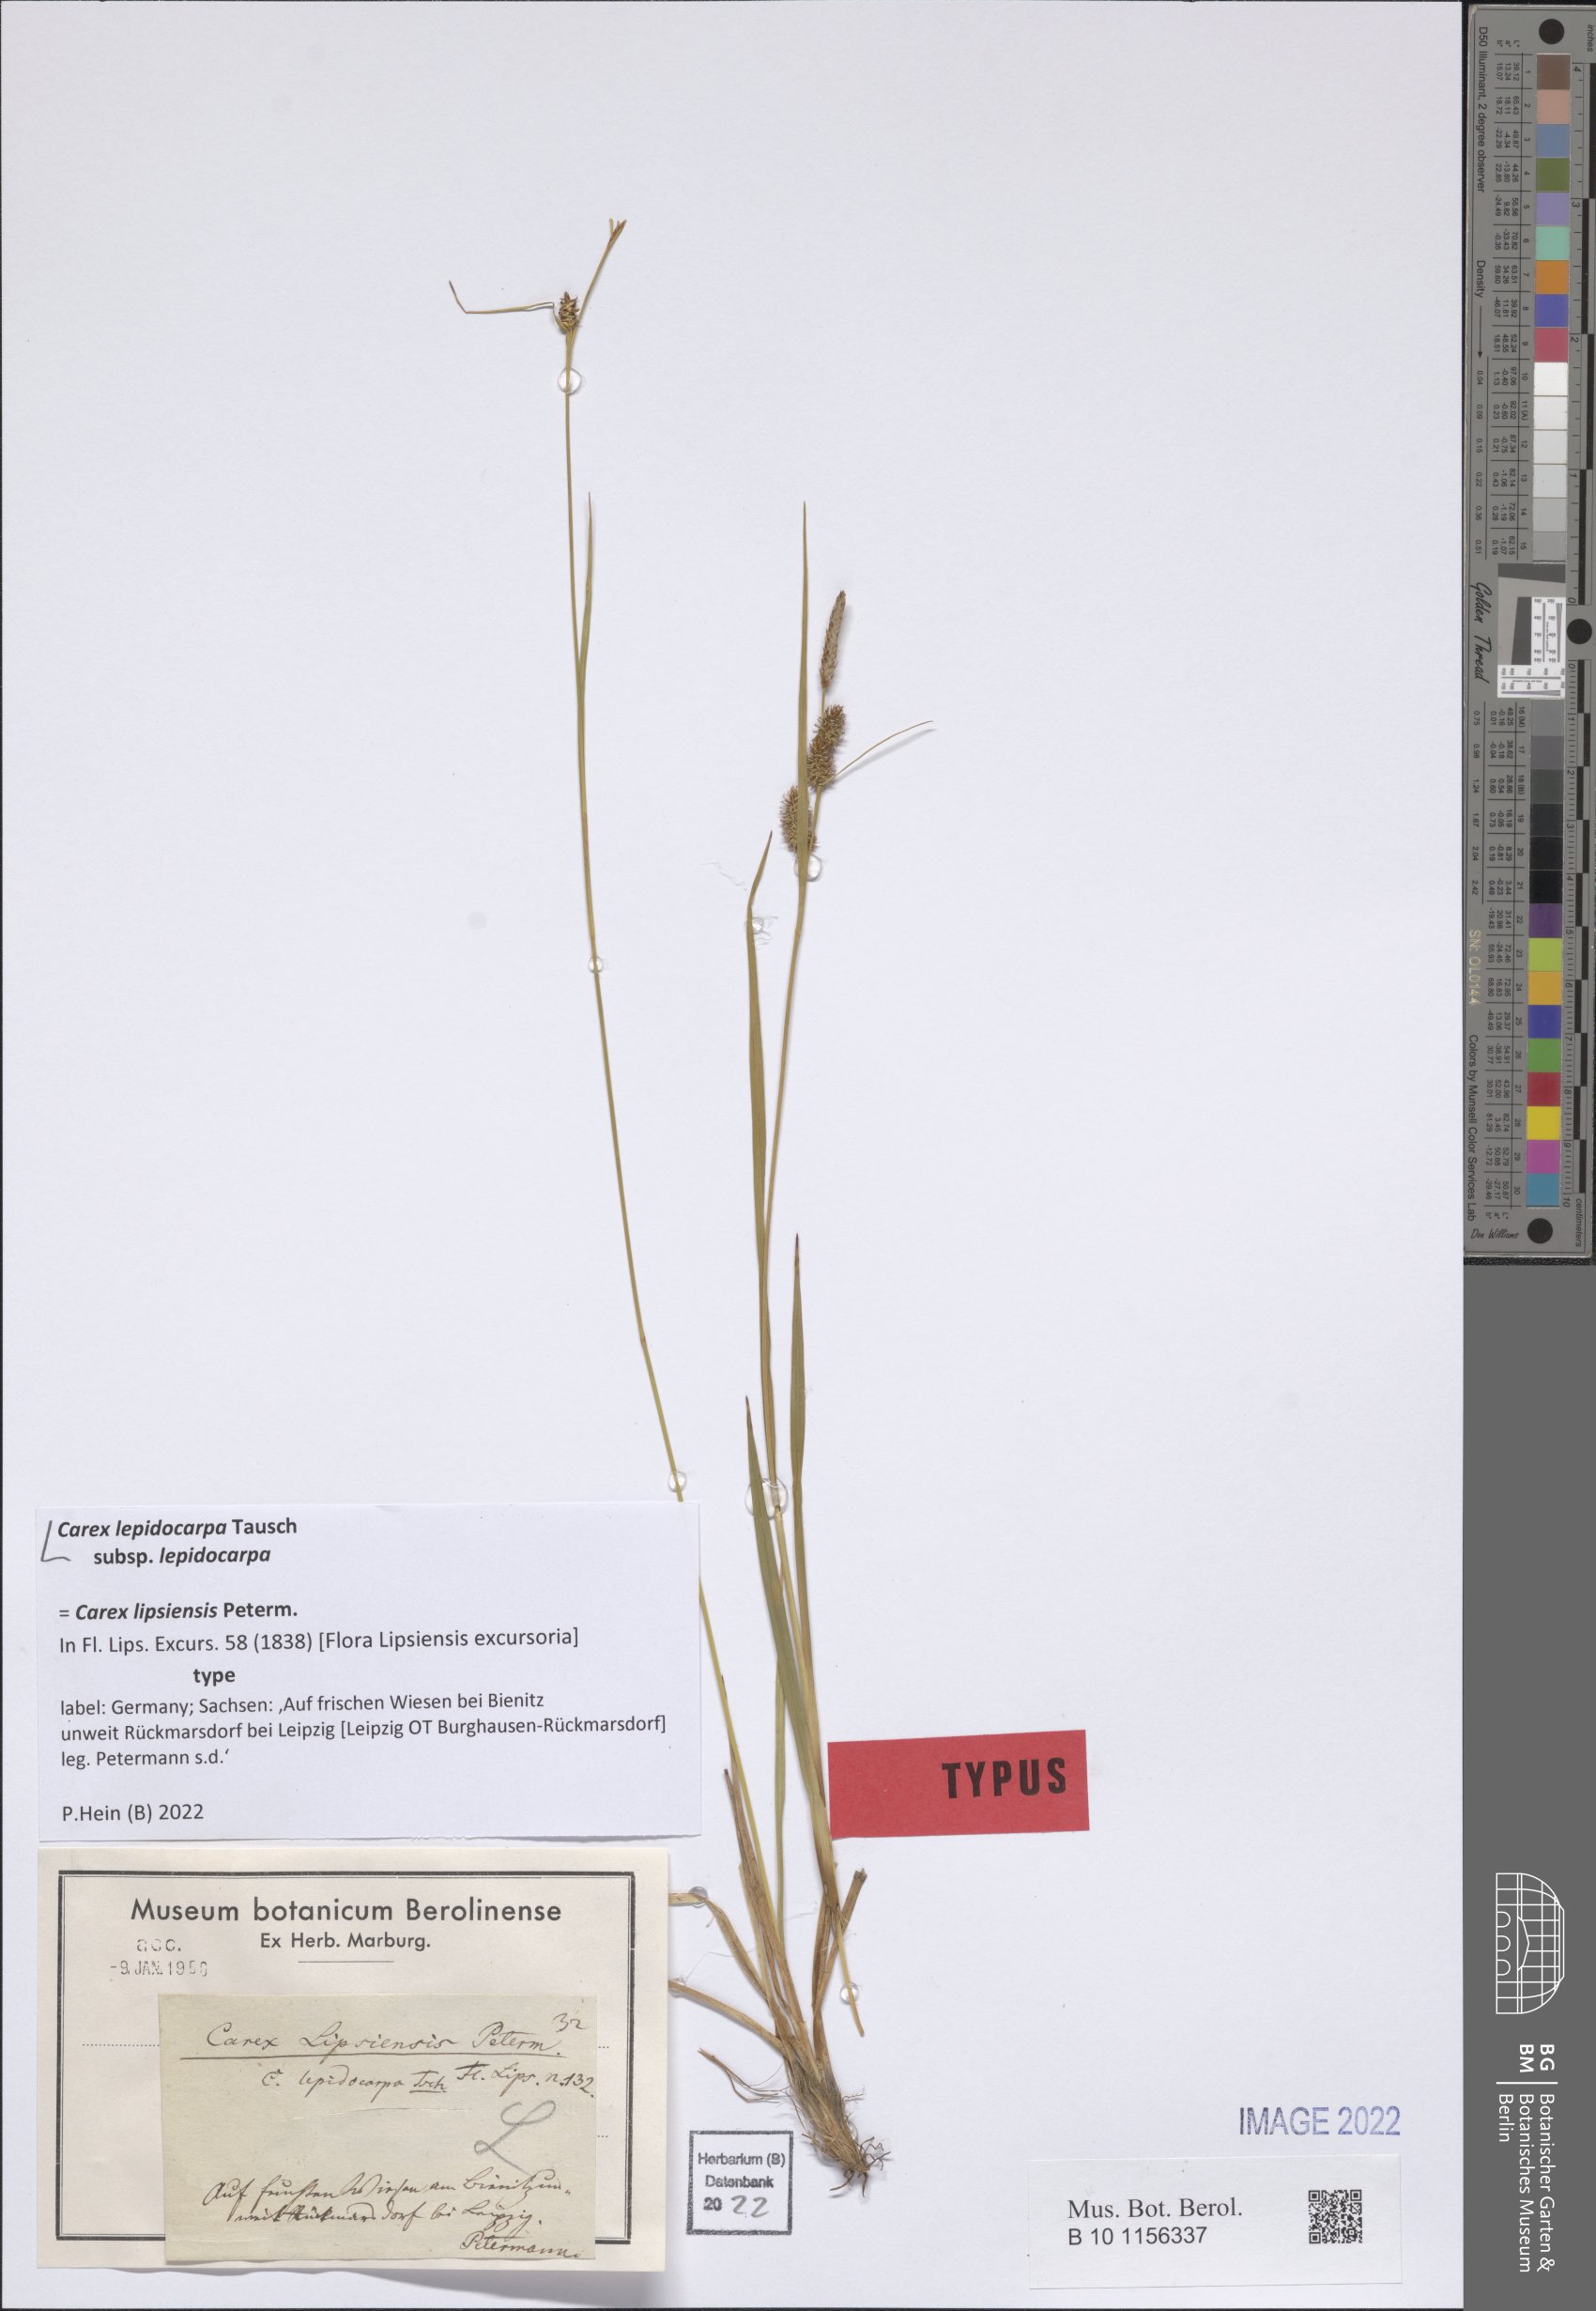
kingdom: Plantae
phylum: Tracheophyta
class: Liliopsida
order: Poales
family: Cyperaceae
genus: Carex
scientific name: Carex lepidocarpa
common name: Long-stalked yellow-sedge
